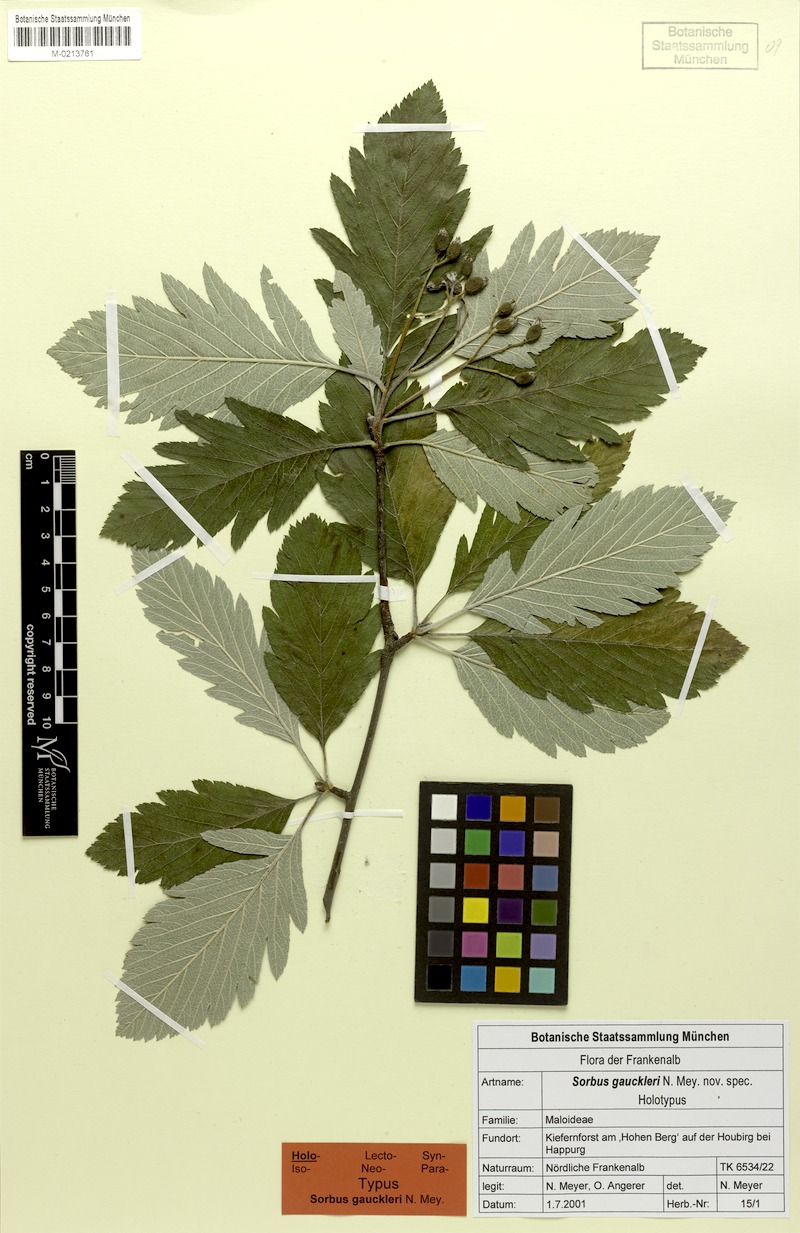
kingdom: Plantae
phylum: Tracheophyta
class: Magnoliopsida
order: Rosales
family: Rosaceae
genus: Hedlundia
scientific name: Hedlundia gauckleri
